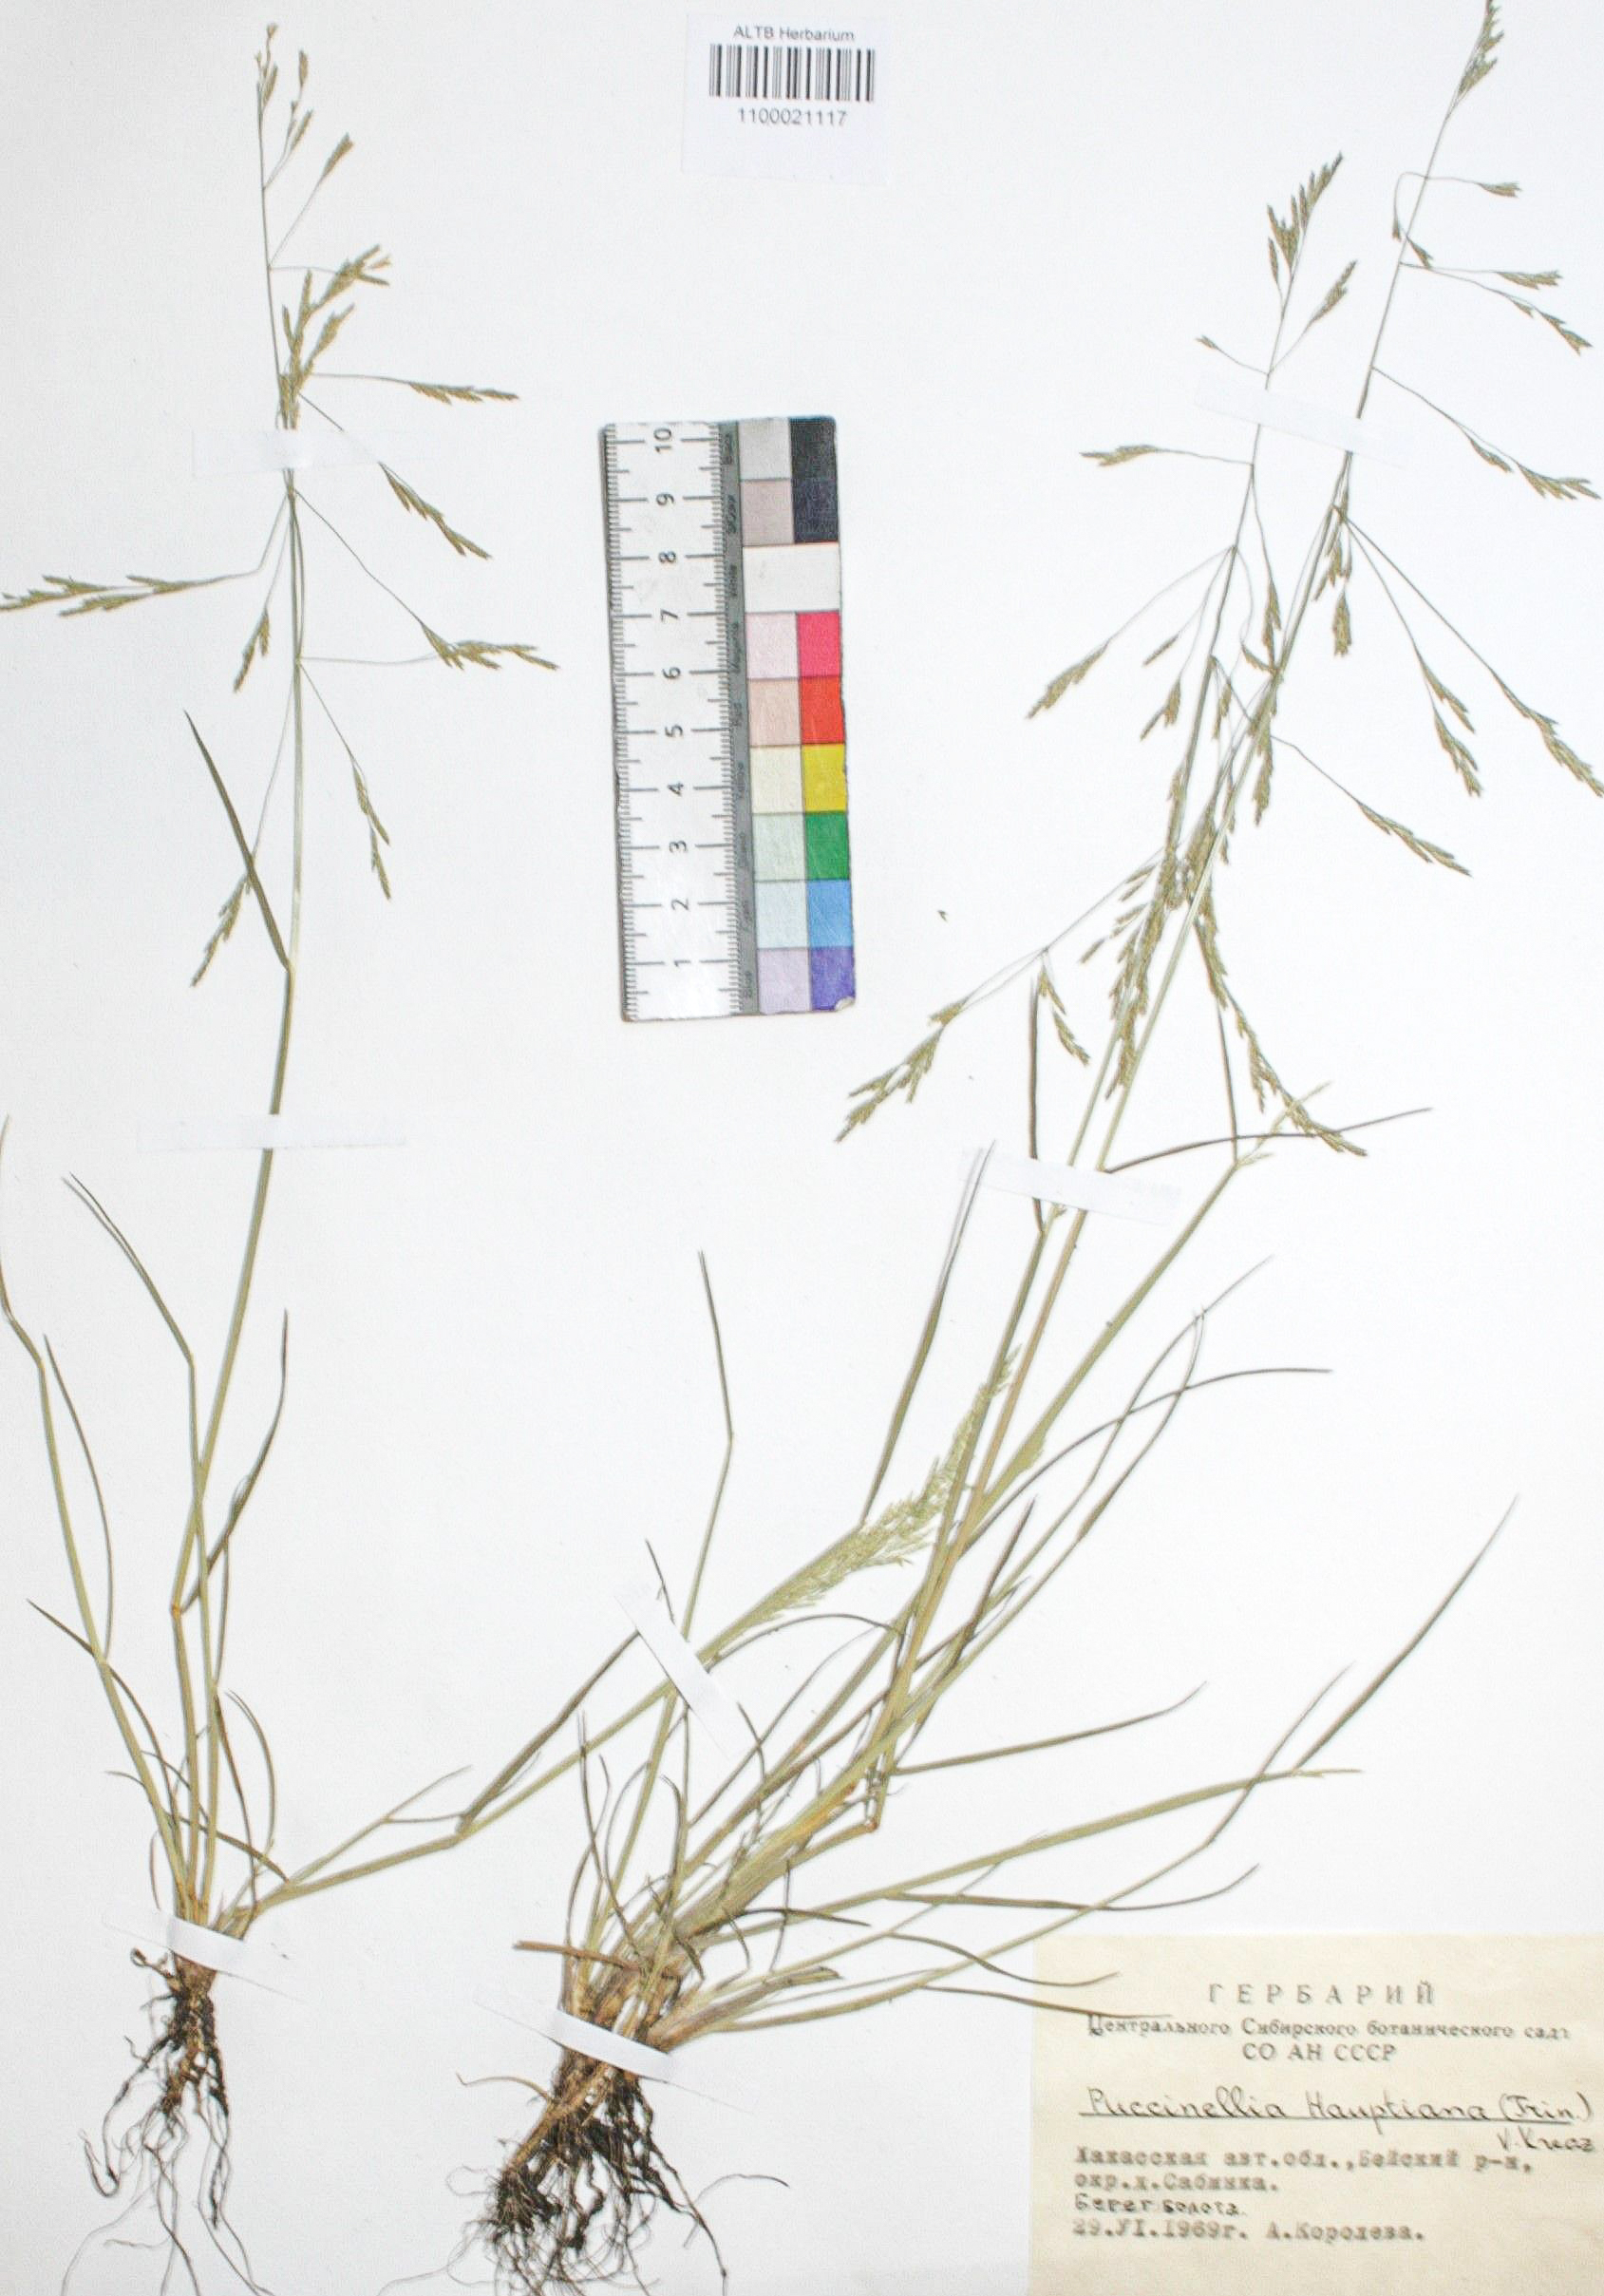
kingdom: Plantae
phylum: Tracheophyta
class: Liliopsida
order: Poales
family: Poaceae
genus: Puccinellia
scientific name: Puccinellia hauptiana
